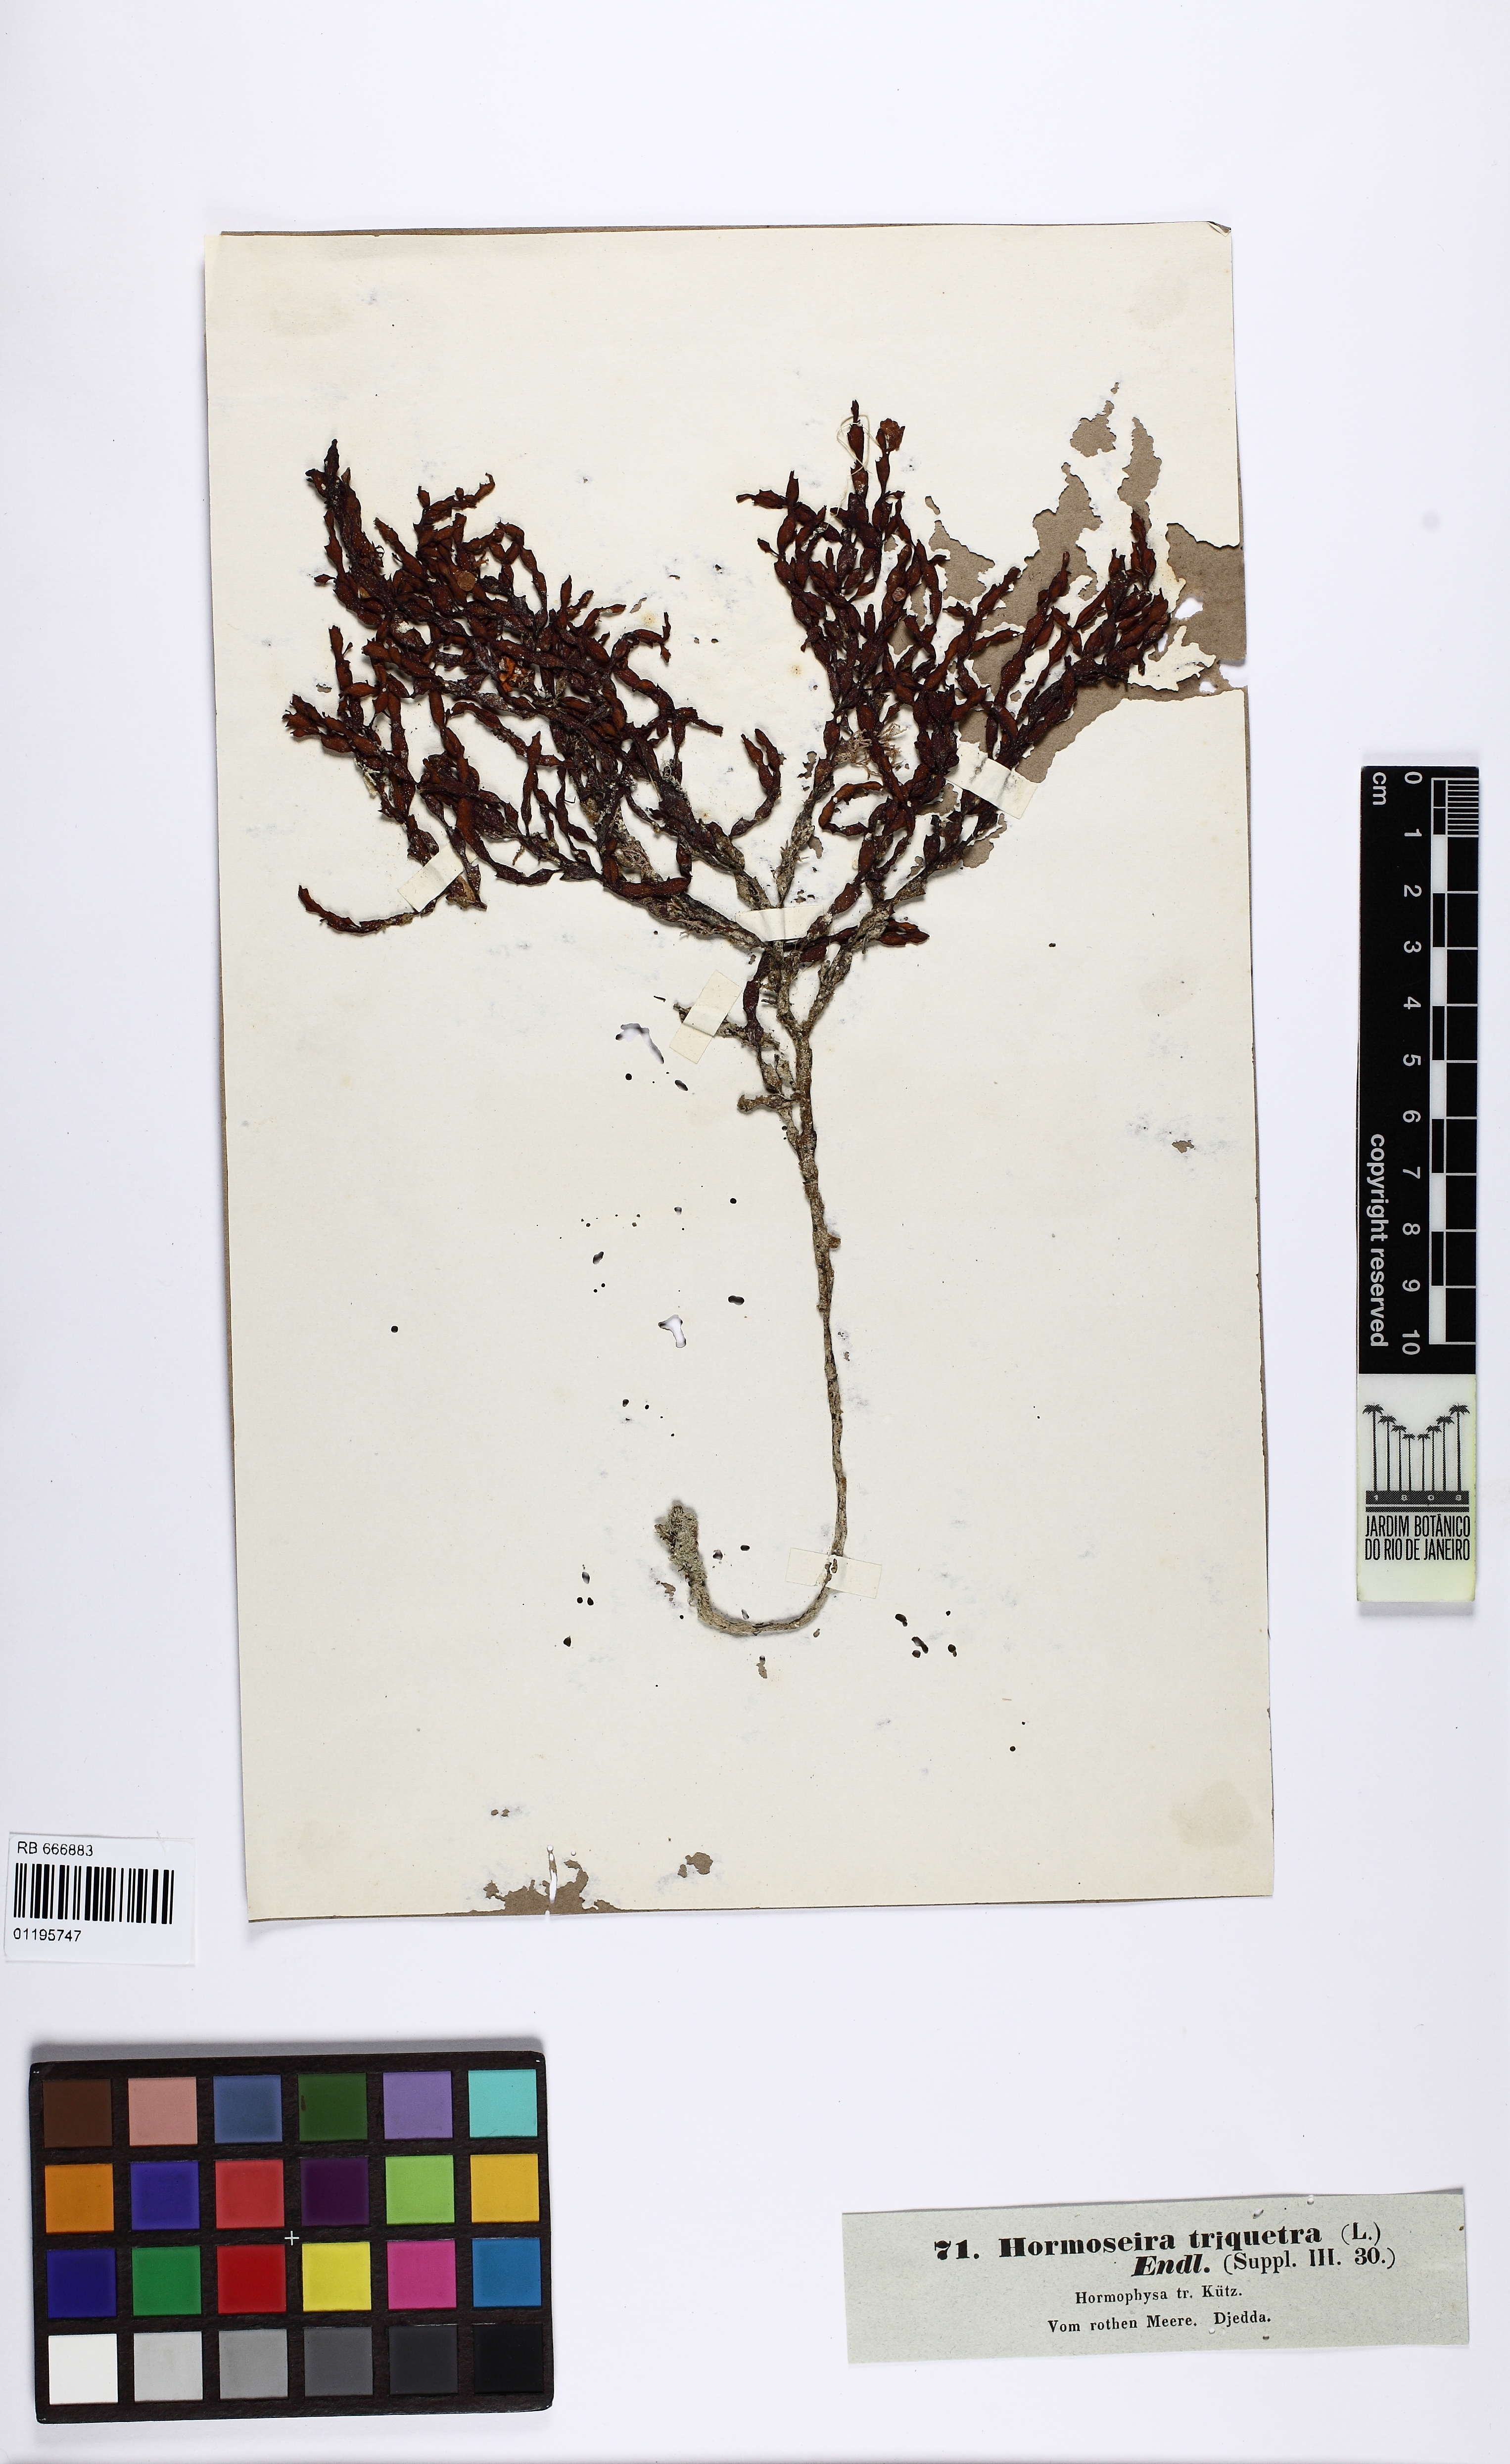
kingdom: Chromista
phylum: Ochrophyta
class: Phaeophyceae
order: Fucales
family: Sargassaceae
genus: Hormophysa
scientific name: Hormophysa cuneiformis
